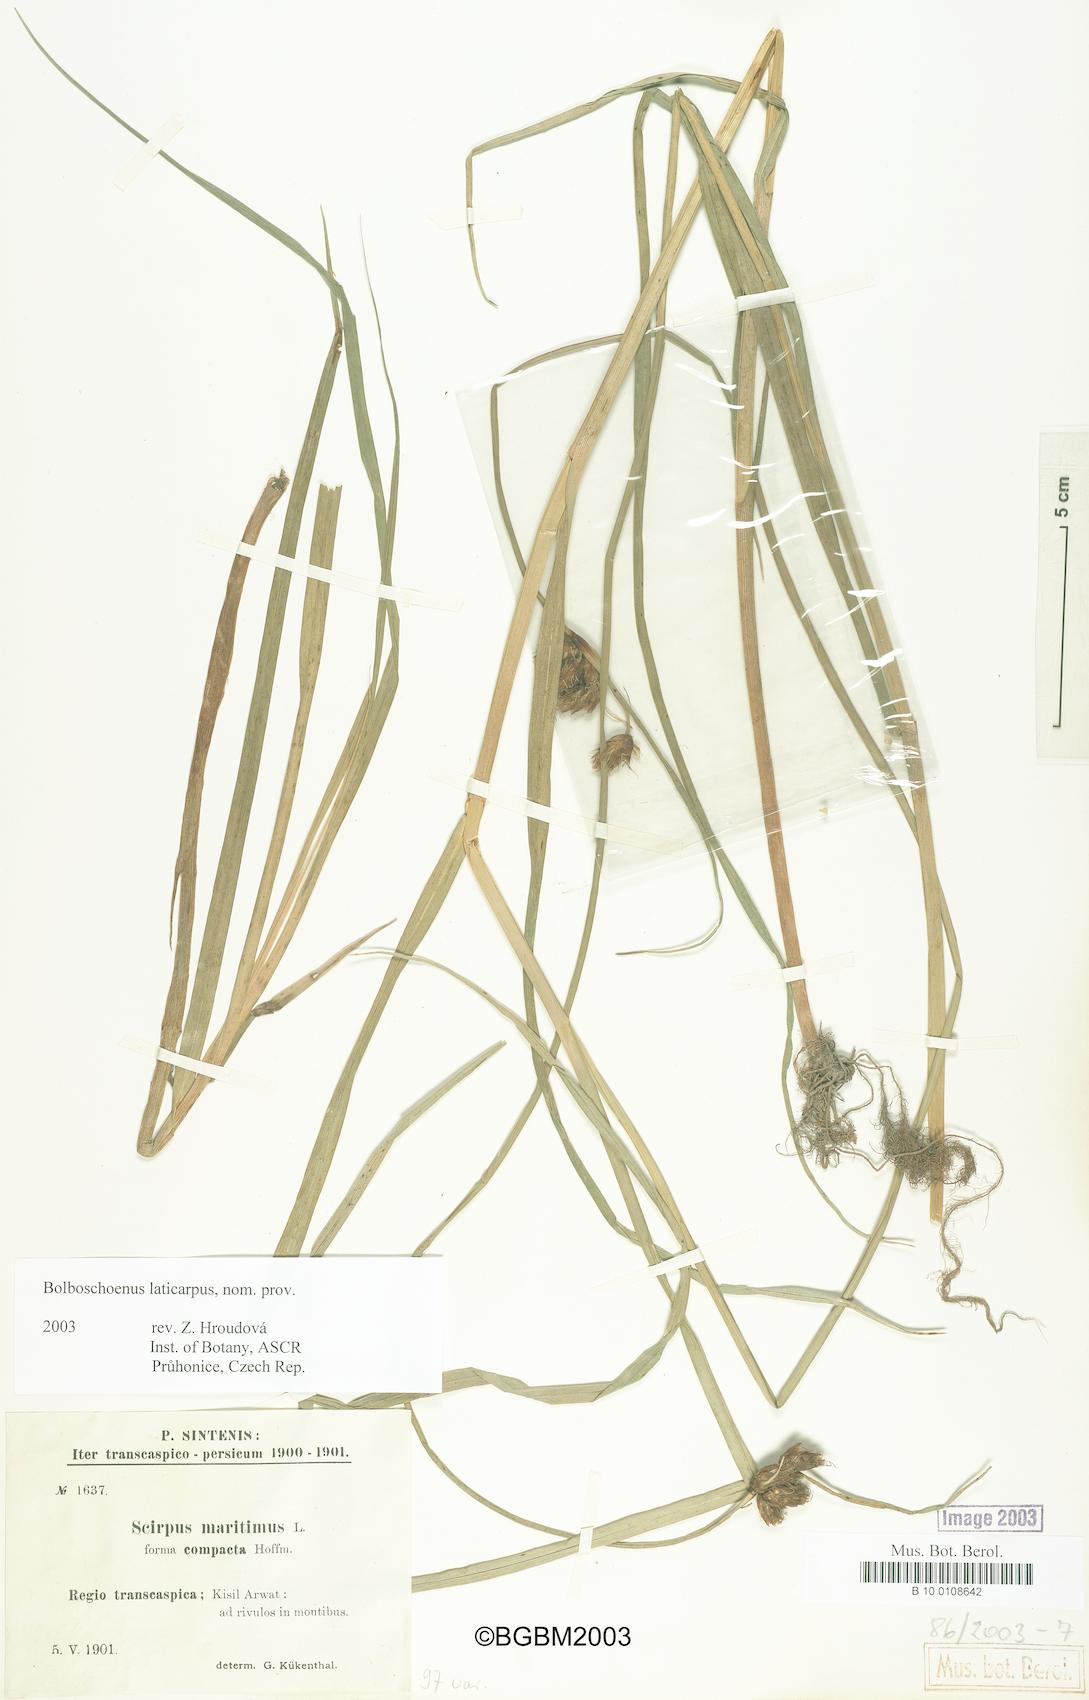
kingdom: Plantae
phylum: Tracheophyta
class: Liliopsida
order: Poales
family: Cyperaceae
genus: Bolboschoenus
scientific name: Bolboschoenus laticarpus
